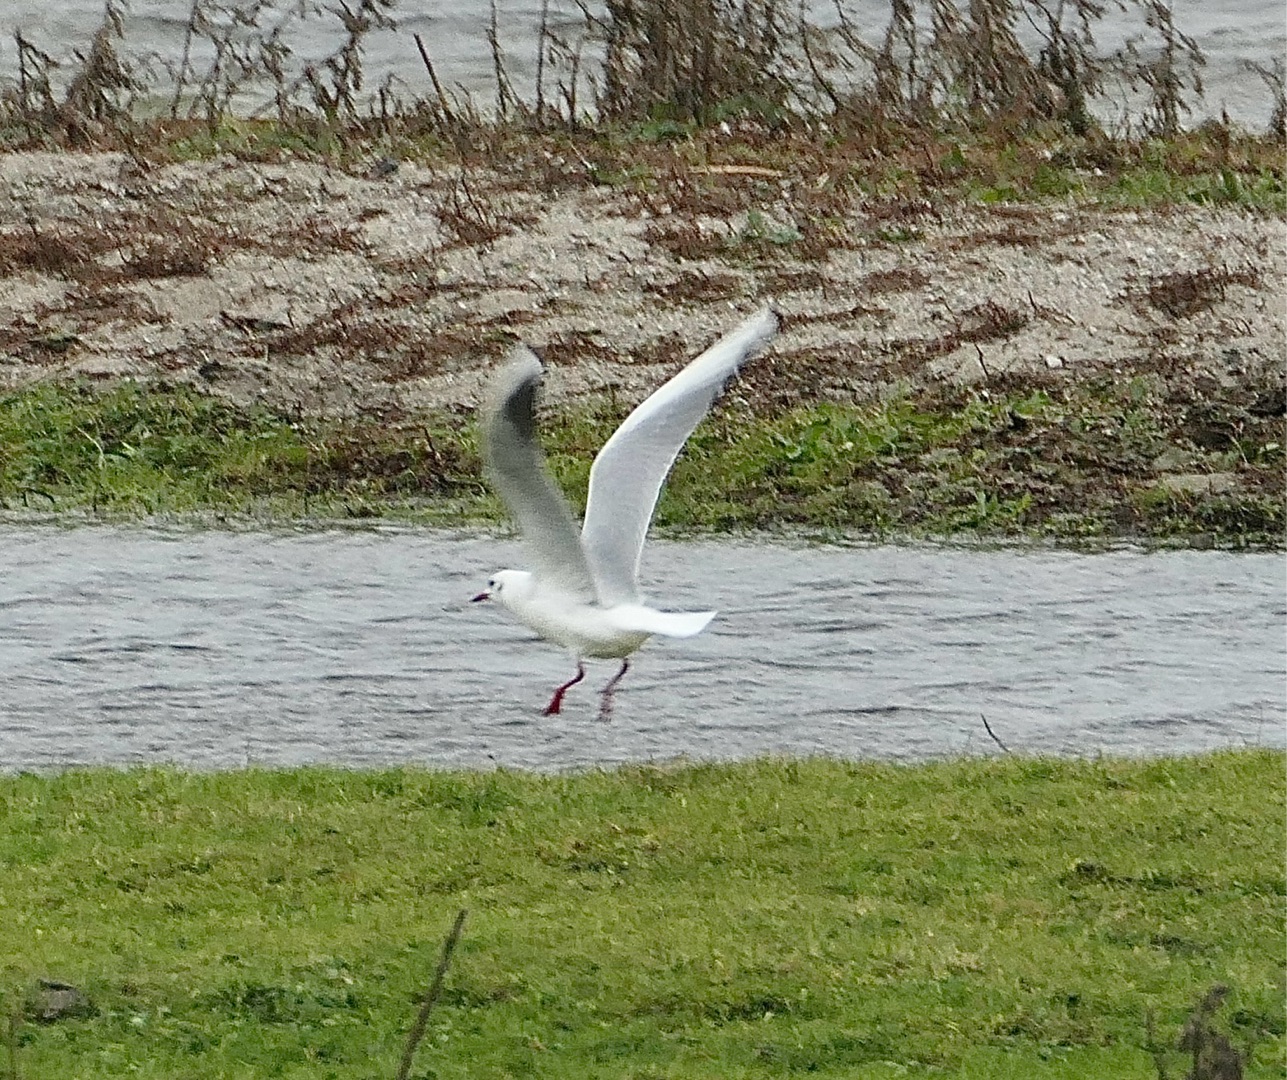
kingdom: Animalia
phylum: Chordata
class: Aves
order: Charadriiformes
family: Laridae
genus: Chroicocephalus
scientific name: Chroicocephalus ridibundus
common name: Hættemåge
